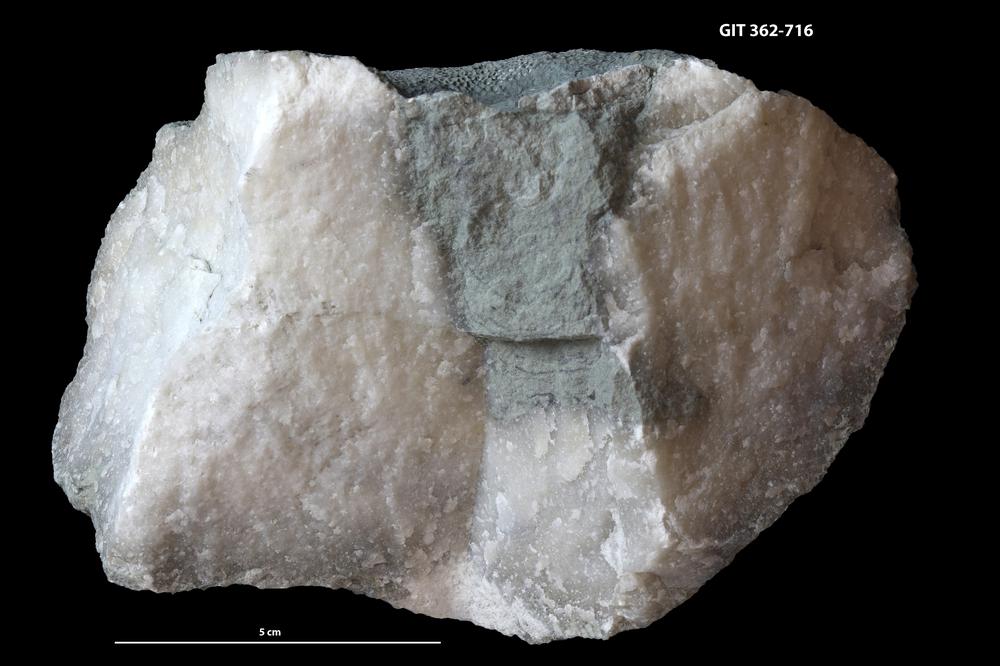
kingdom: Animalia
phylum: Cnidaria
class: Anthozoa
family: Favositidae
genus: Favosites
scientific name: Favosites
